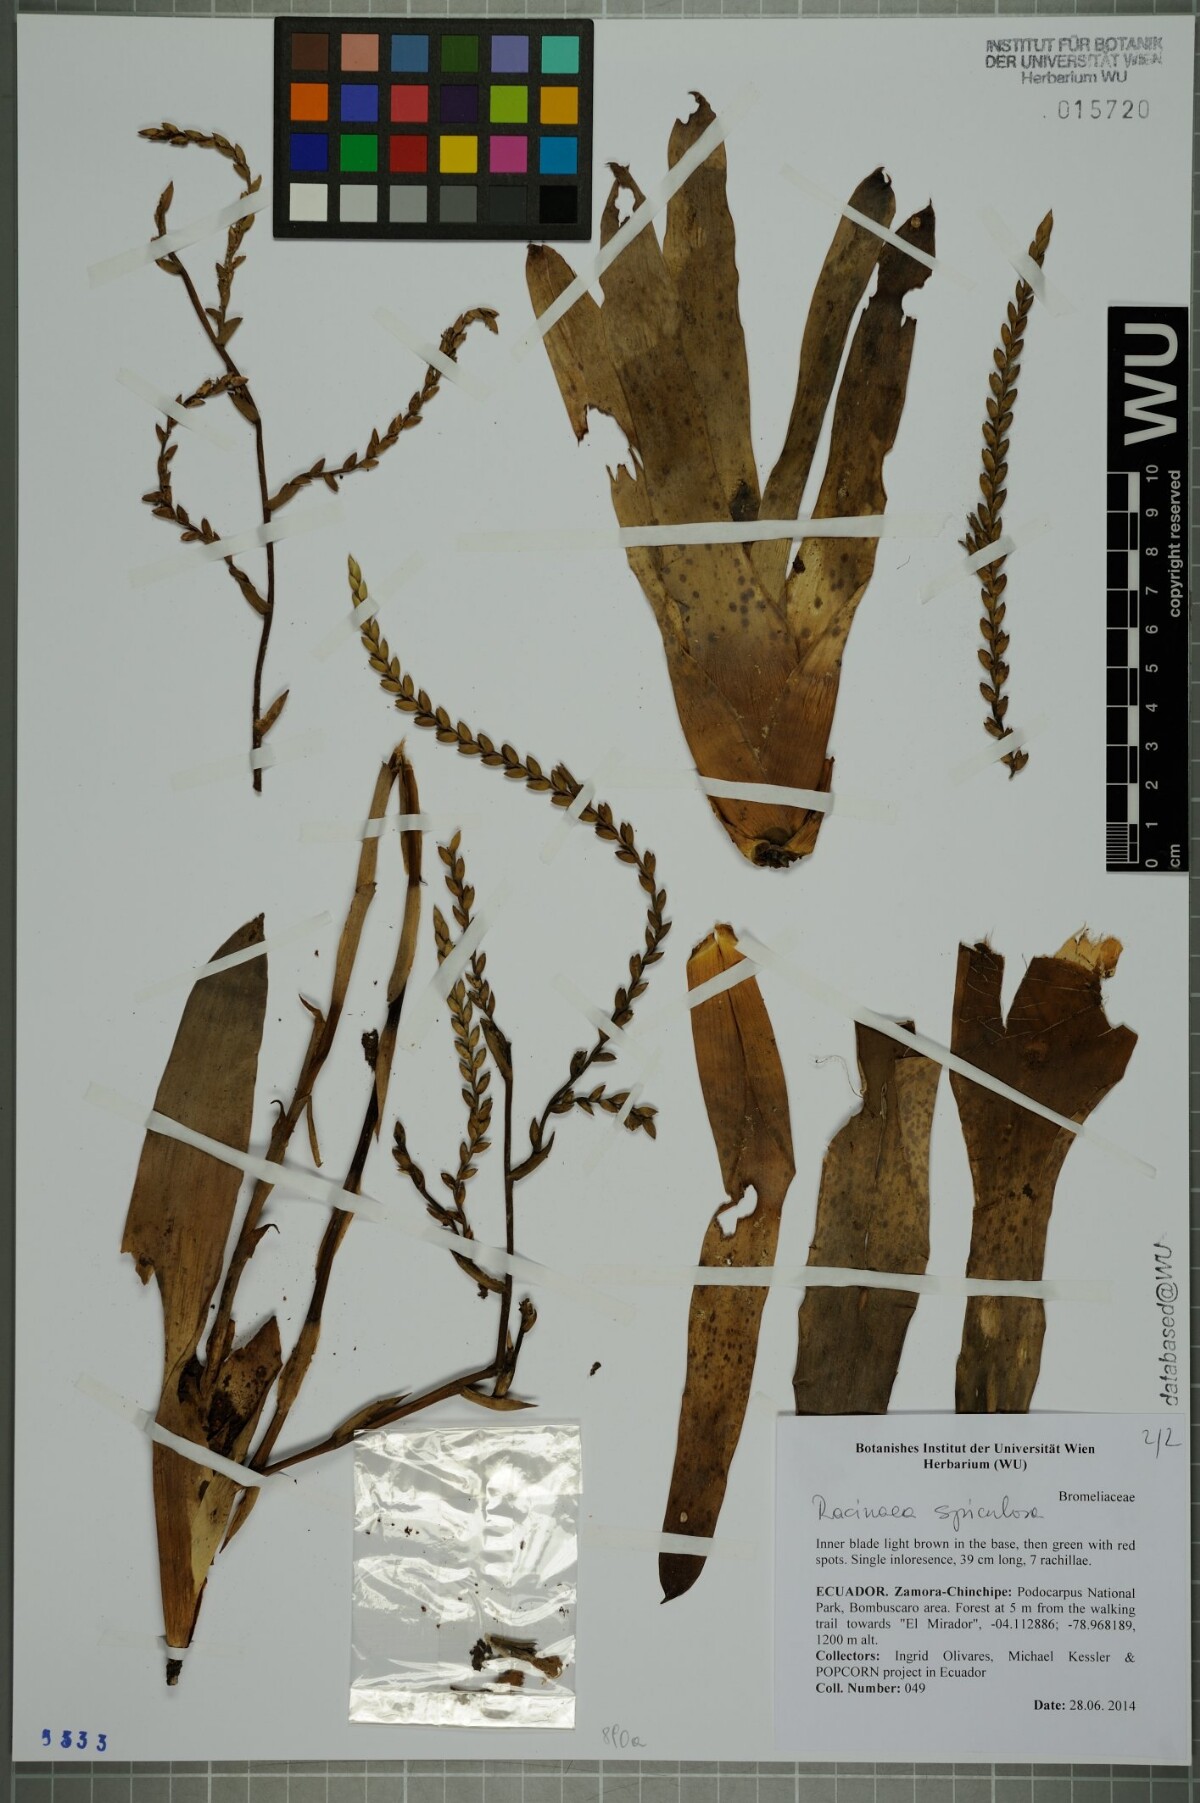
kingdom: Plantae
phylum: Tracheophyta
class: Liliopsida
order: Poales
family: Bromeliaceae
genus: Racinaea
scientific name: Racinaea spiculosa
